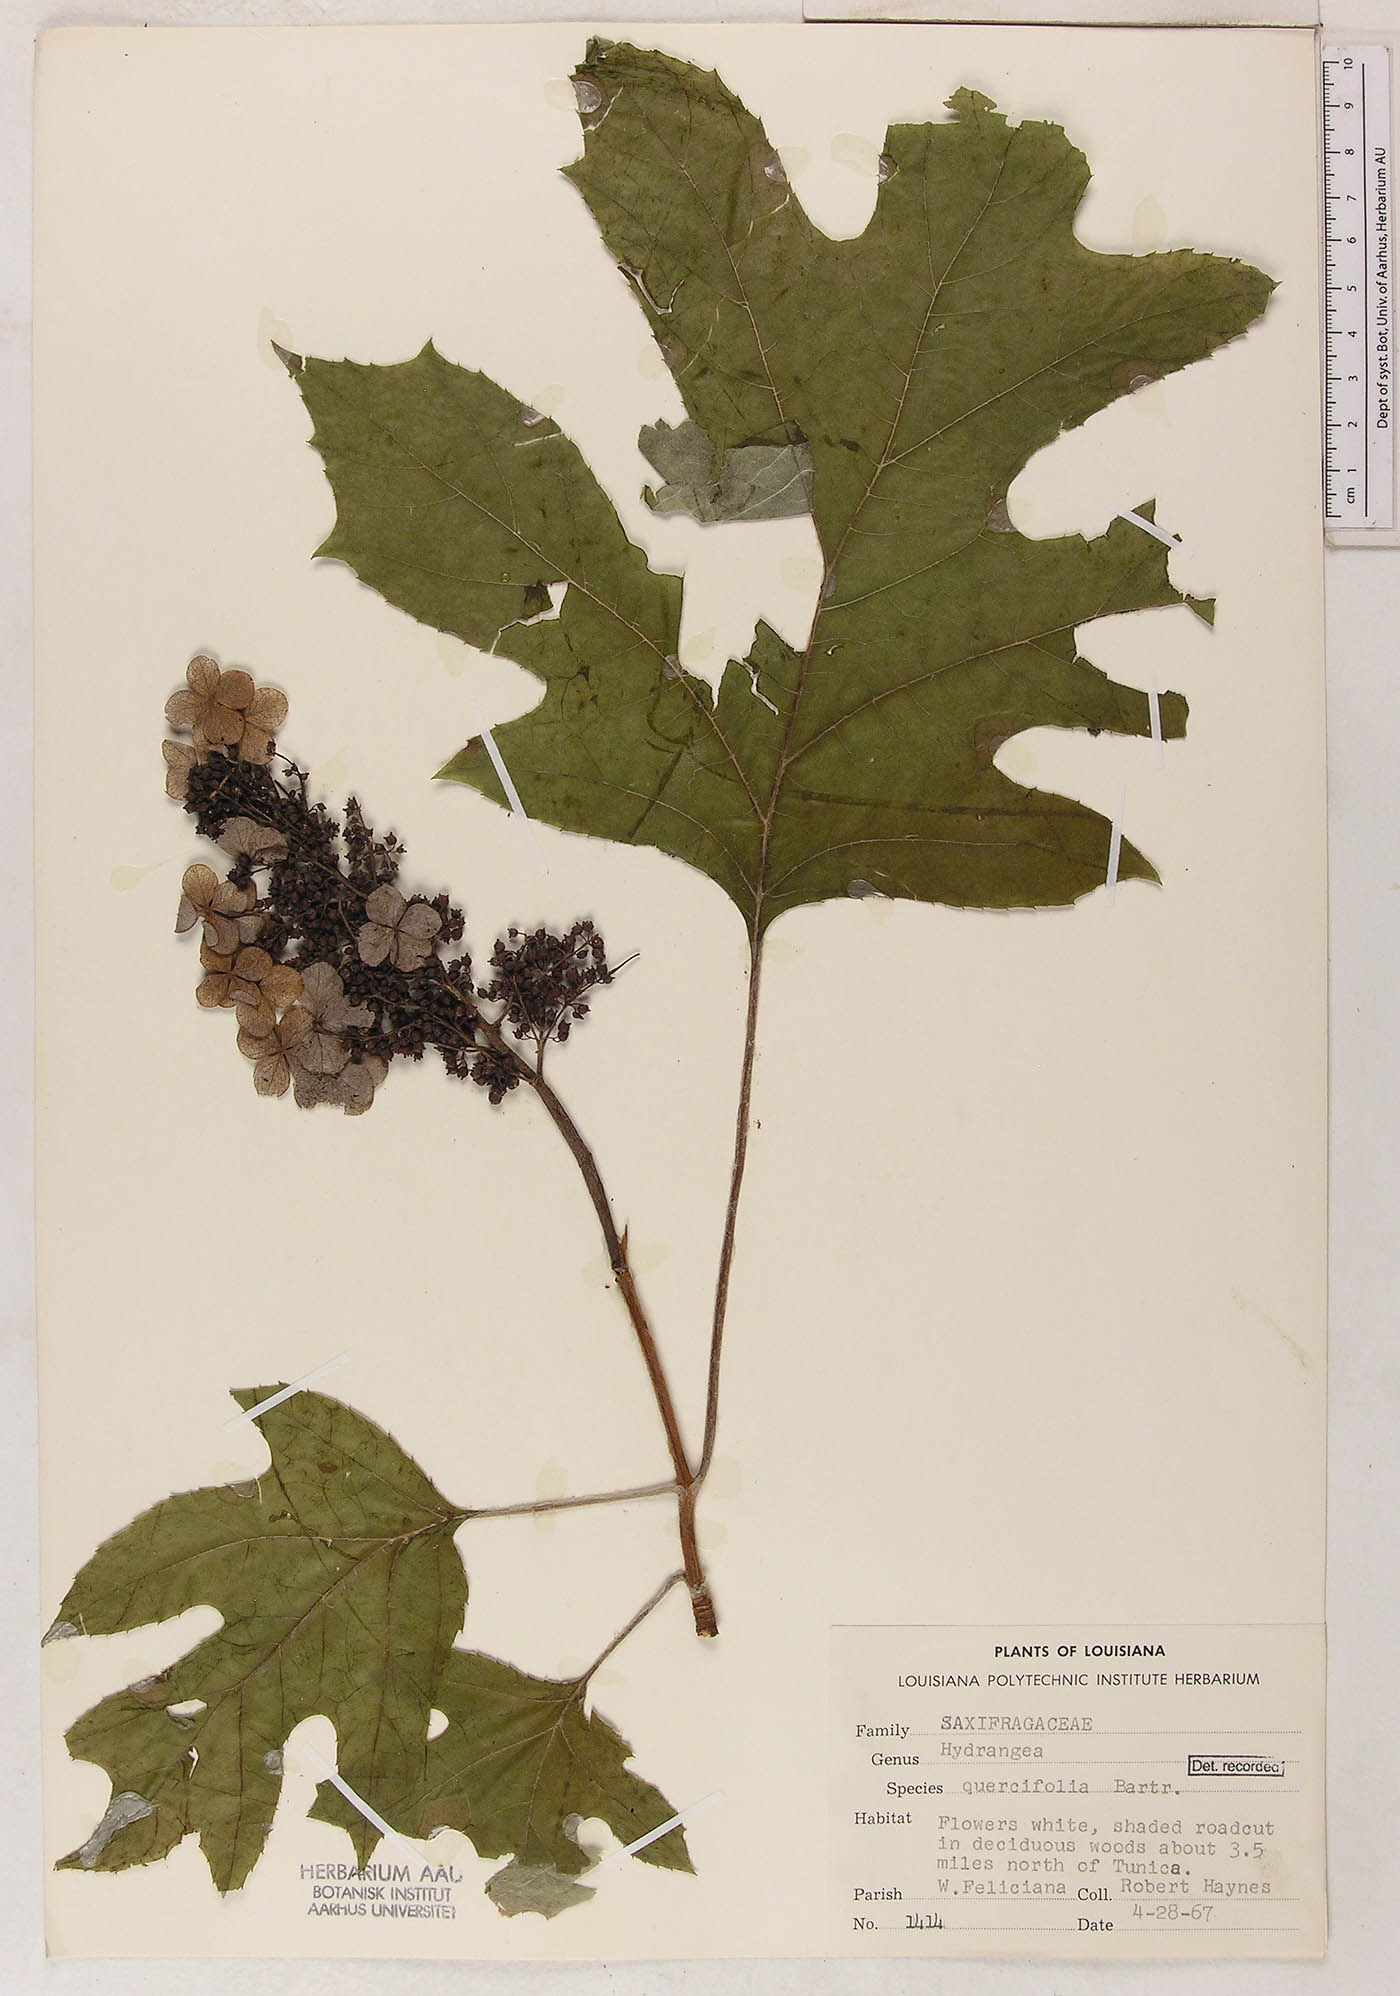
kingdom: Plantae
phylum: Tracheophyta
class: Magnoliopsida
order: Cornales
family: Hydrangeaceae
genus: Hydrangea
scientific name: Hydrangea quercifolia
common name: Oak-leaf hydrangea
